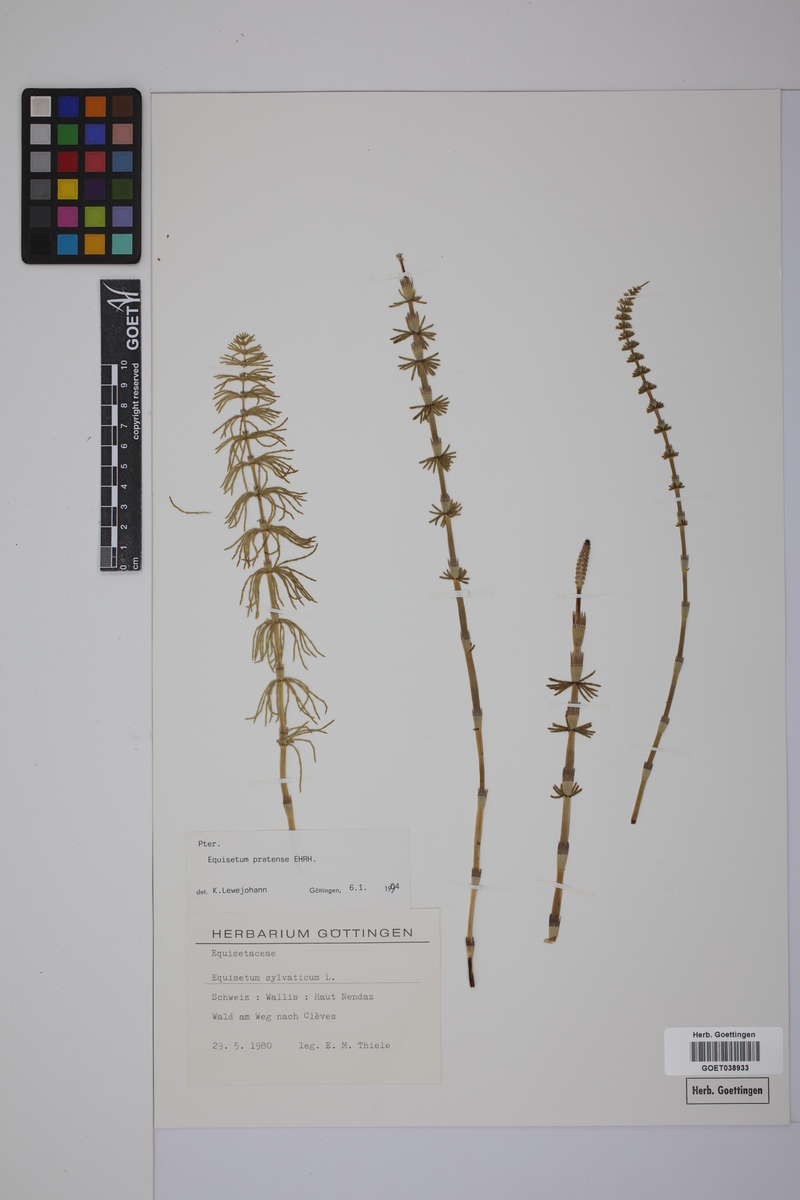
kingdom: Plantae
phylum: Tracheophyta
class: Polypodiopsida
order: Equisetales
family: Equisetaceae
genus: Equisetum
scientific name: Equisetum pratense
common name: Meadow horsetail
